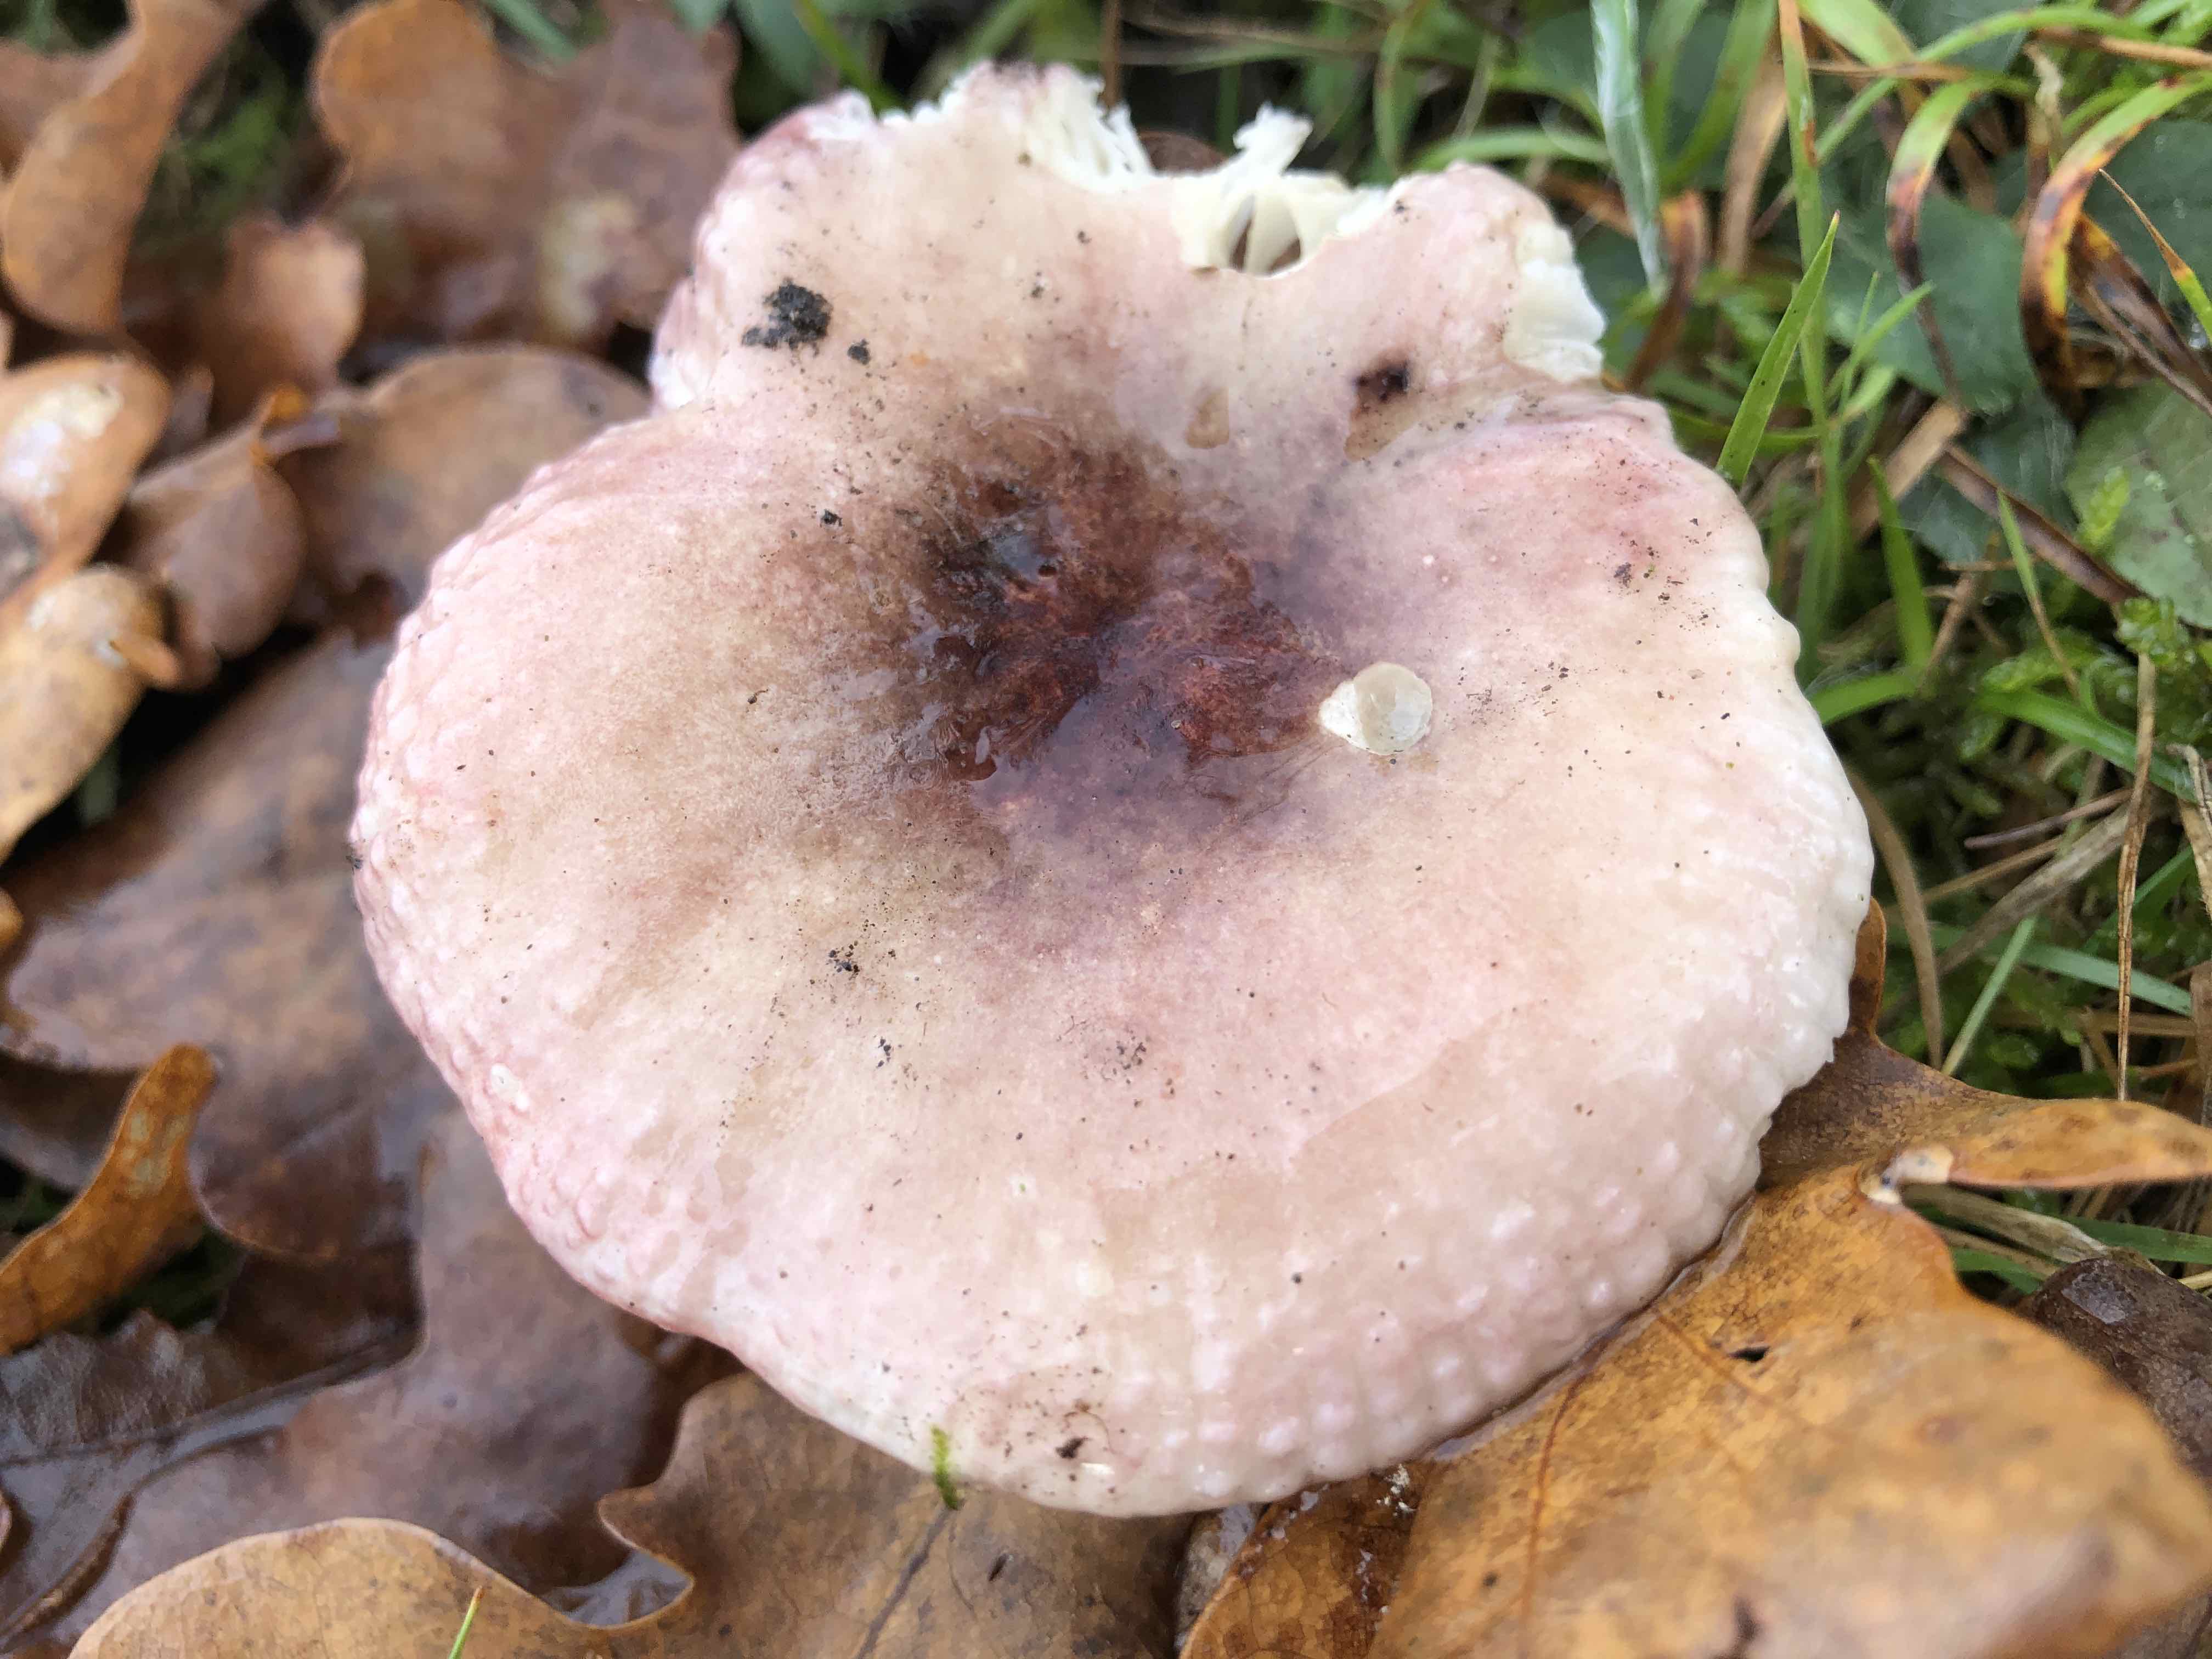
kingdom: Fungi
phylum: Basidiomycota
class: Agaricomycetes
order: Russulales
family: Russulaceae
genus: Russula
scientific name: Russula fragilis
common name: savbladet skørhat
